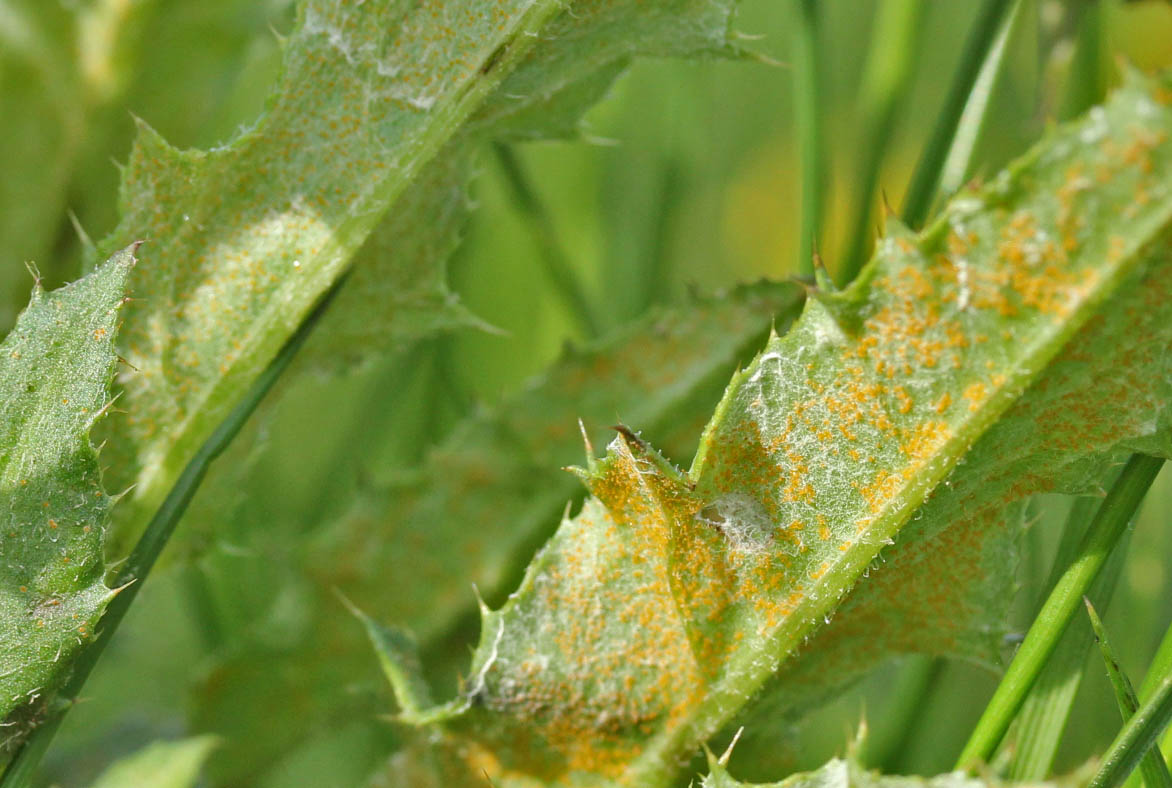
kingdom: Fungi
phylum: Basidiomycota
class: Pucciniomycetes
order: Pucciniales
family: Pucciniaceae
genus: Puccinia
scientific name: Puccinia suaveolens
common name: tidsel-tvecellerust
